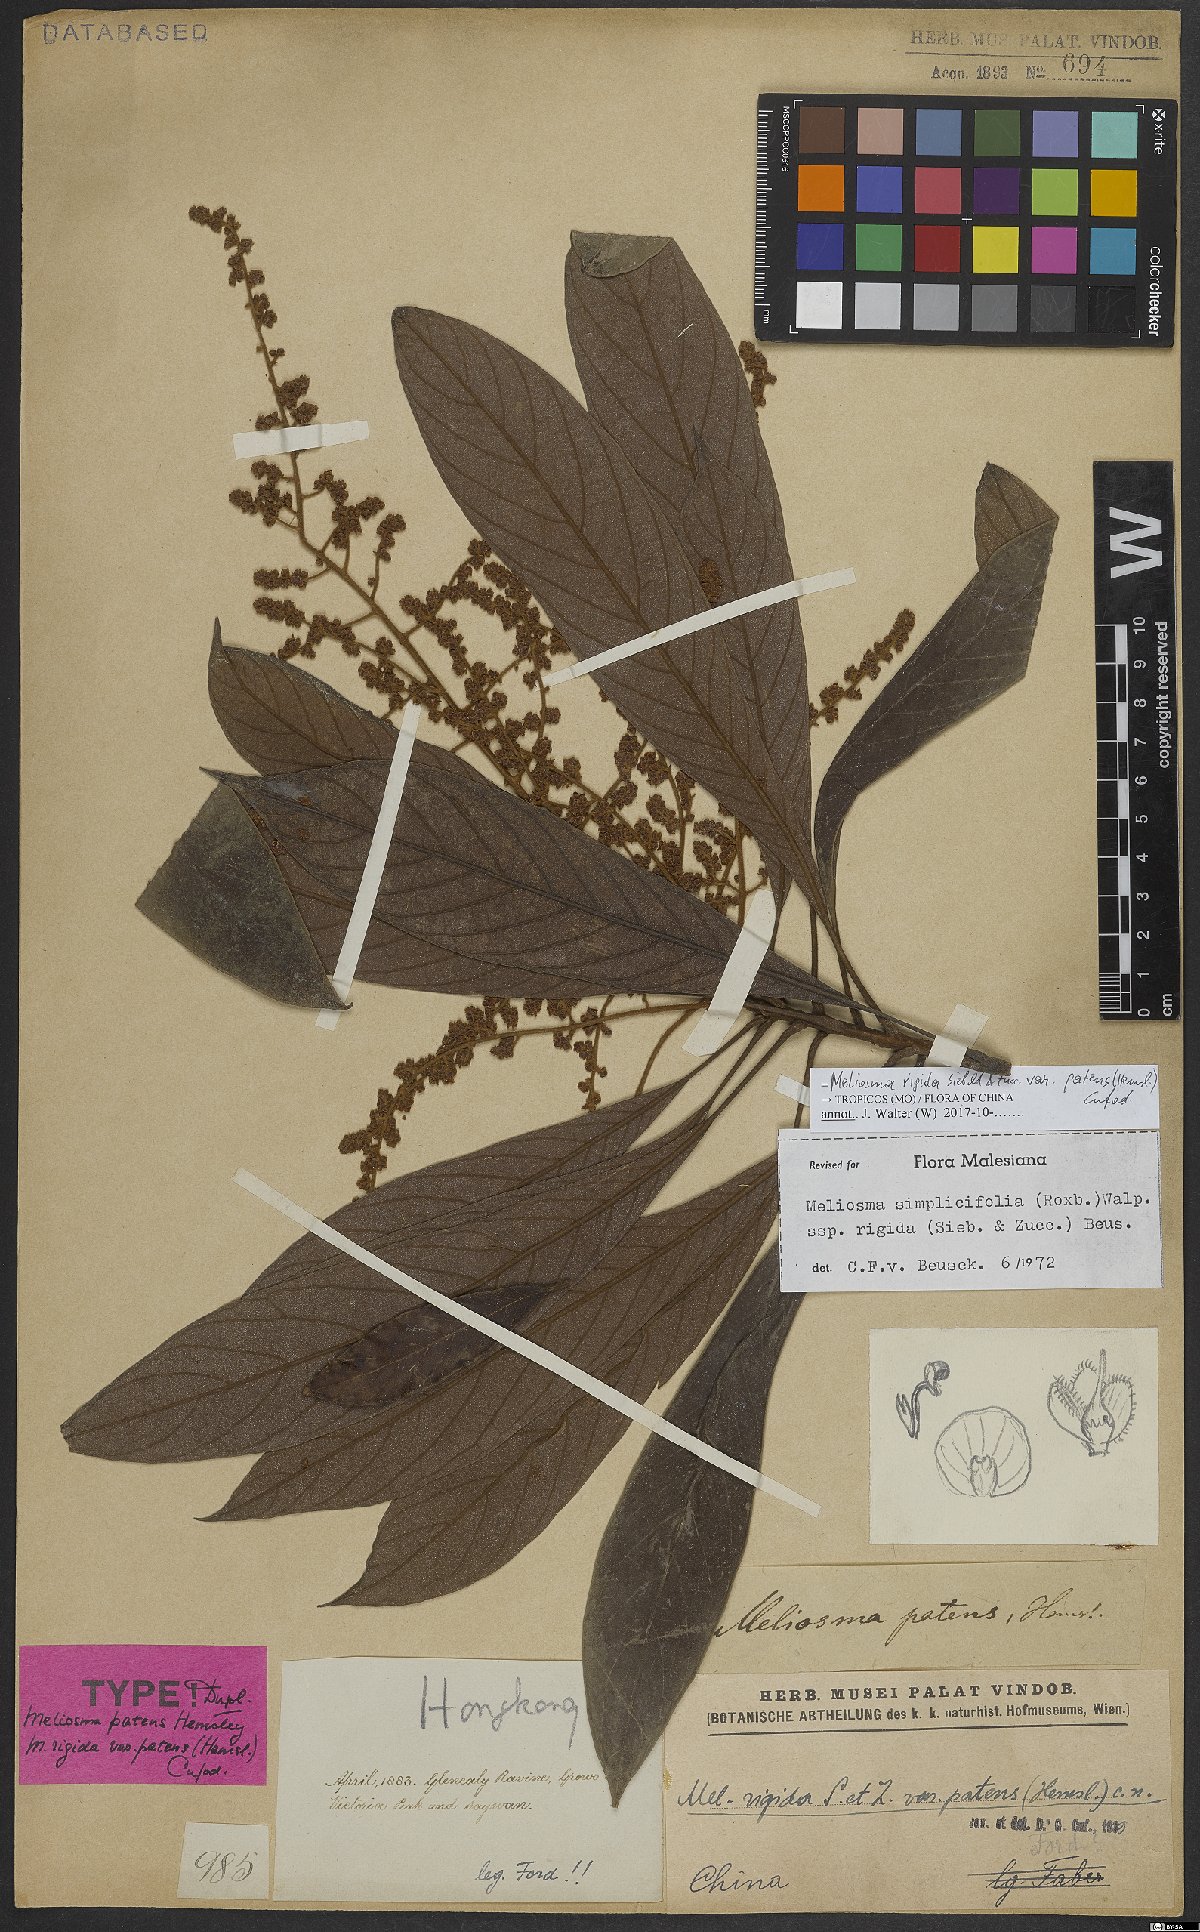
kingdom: Plantae
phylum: Tracheophyta
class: Magnoliopsida
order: Proteales
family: Sabiaceae
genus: Meliosma
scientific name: Meliosma rigida
